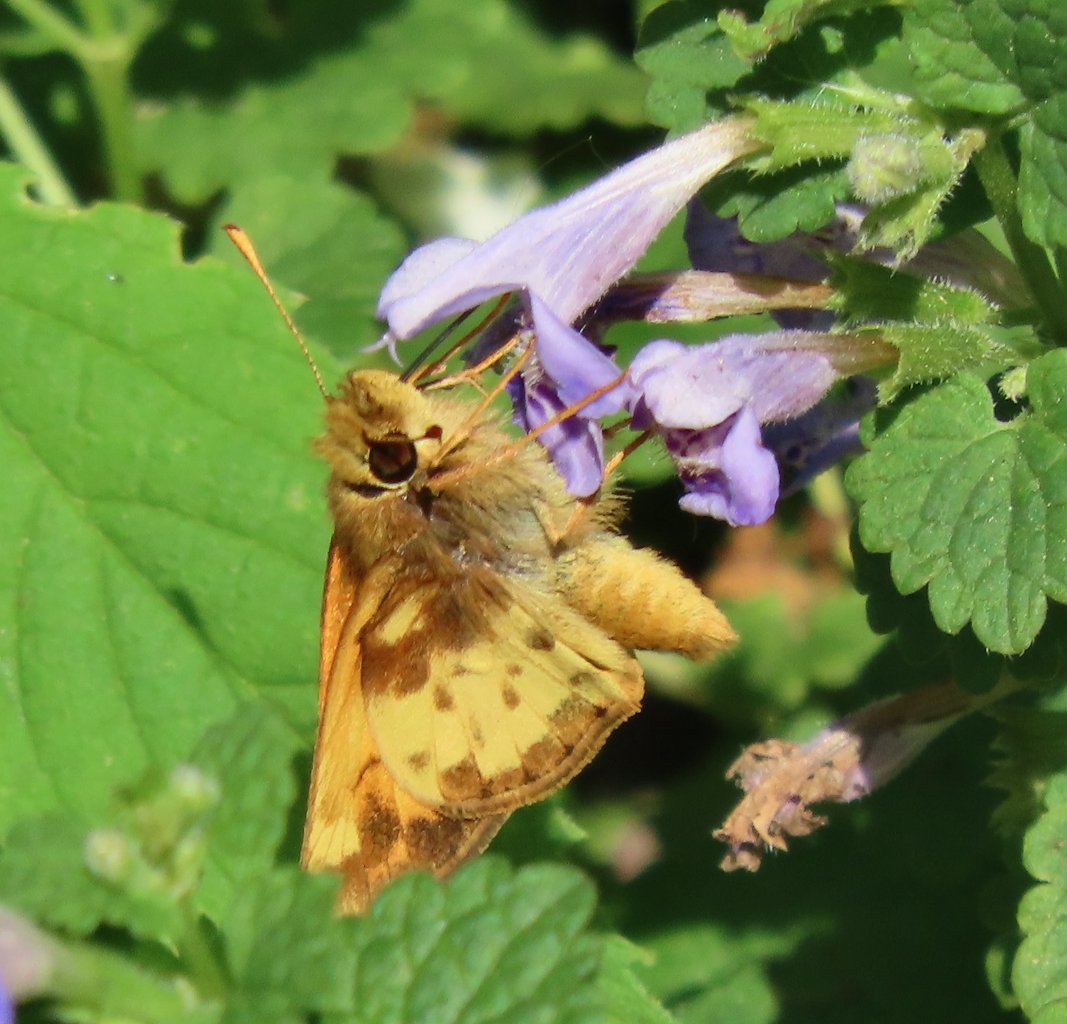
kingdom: Animalia
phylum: Arthropoda
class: Insecta
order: Lepidoptera
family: Hesperiidae
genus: Lon
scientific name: Lon zabulon
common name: Zabulon Skipper
